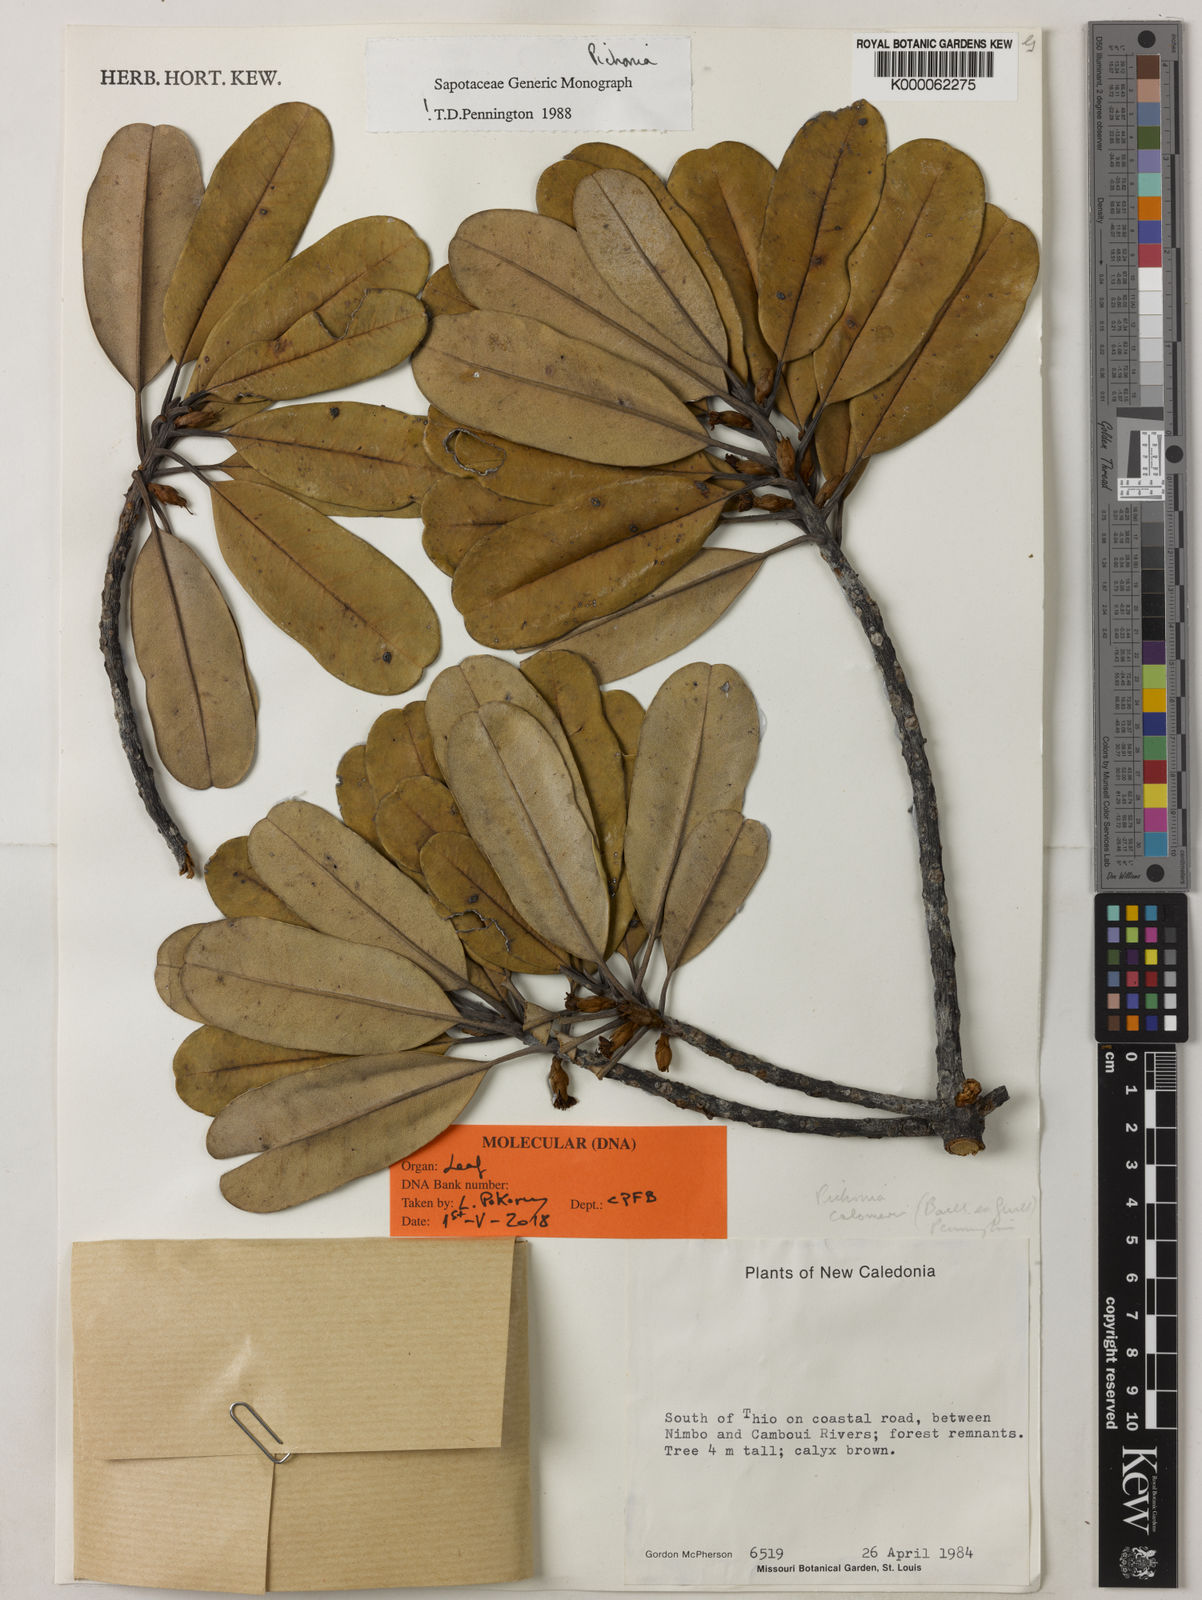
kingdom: Plantae
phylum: Tracheophyta
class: Magnoliopsida
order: Ericales
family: Sapotaceae
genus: Pichonia
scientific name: Pichonia dubia
